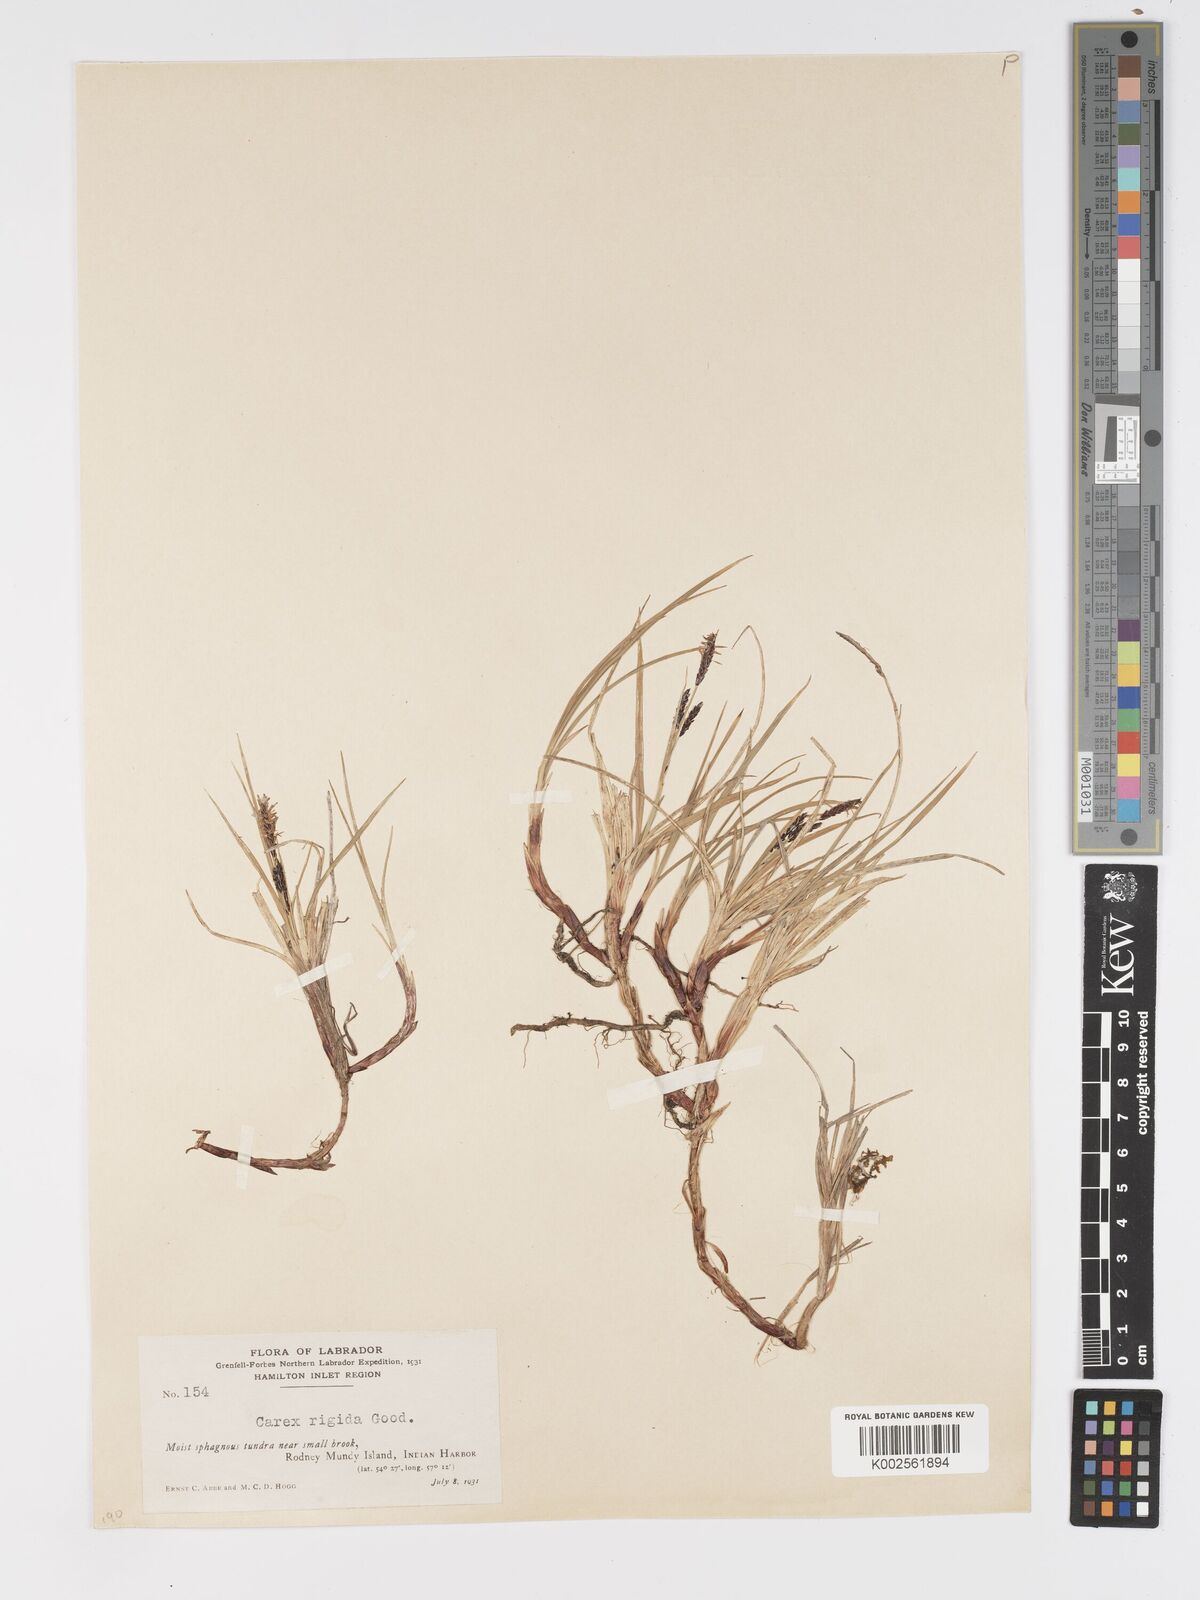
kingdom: Plantae
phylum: Tracheophyta
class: Liliopsida
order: Poales
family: Cyperaceae
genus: Carex
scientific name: Carex bigelowii
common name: Stiff sedge
